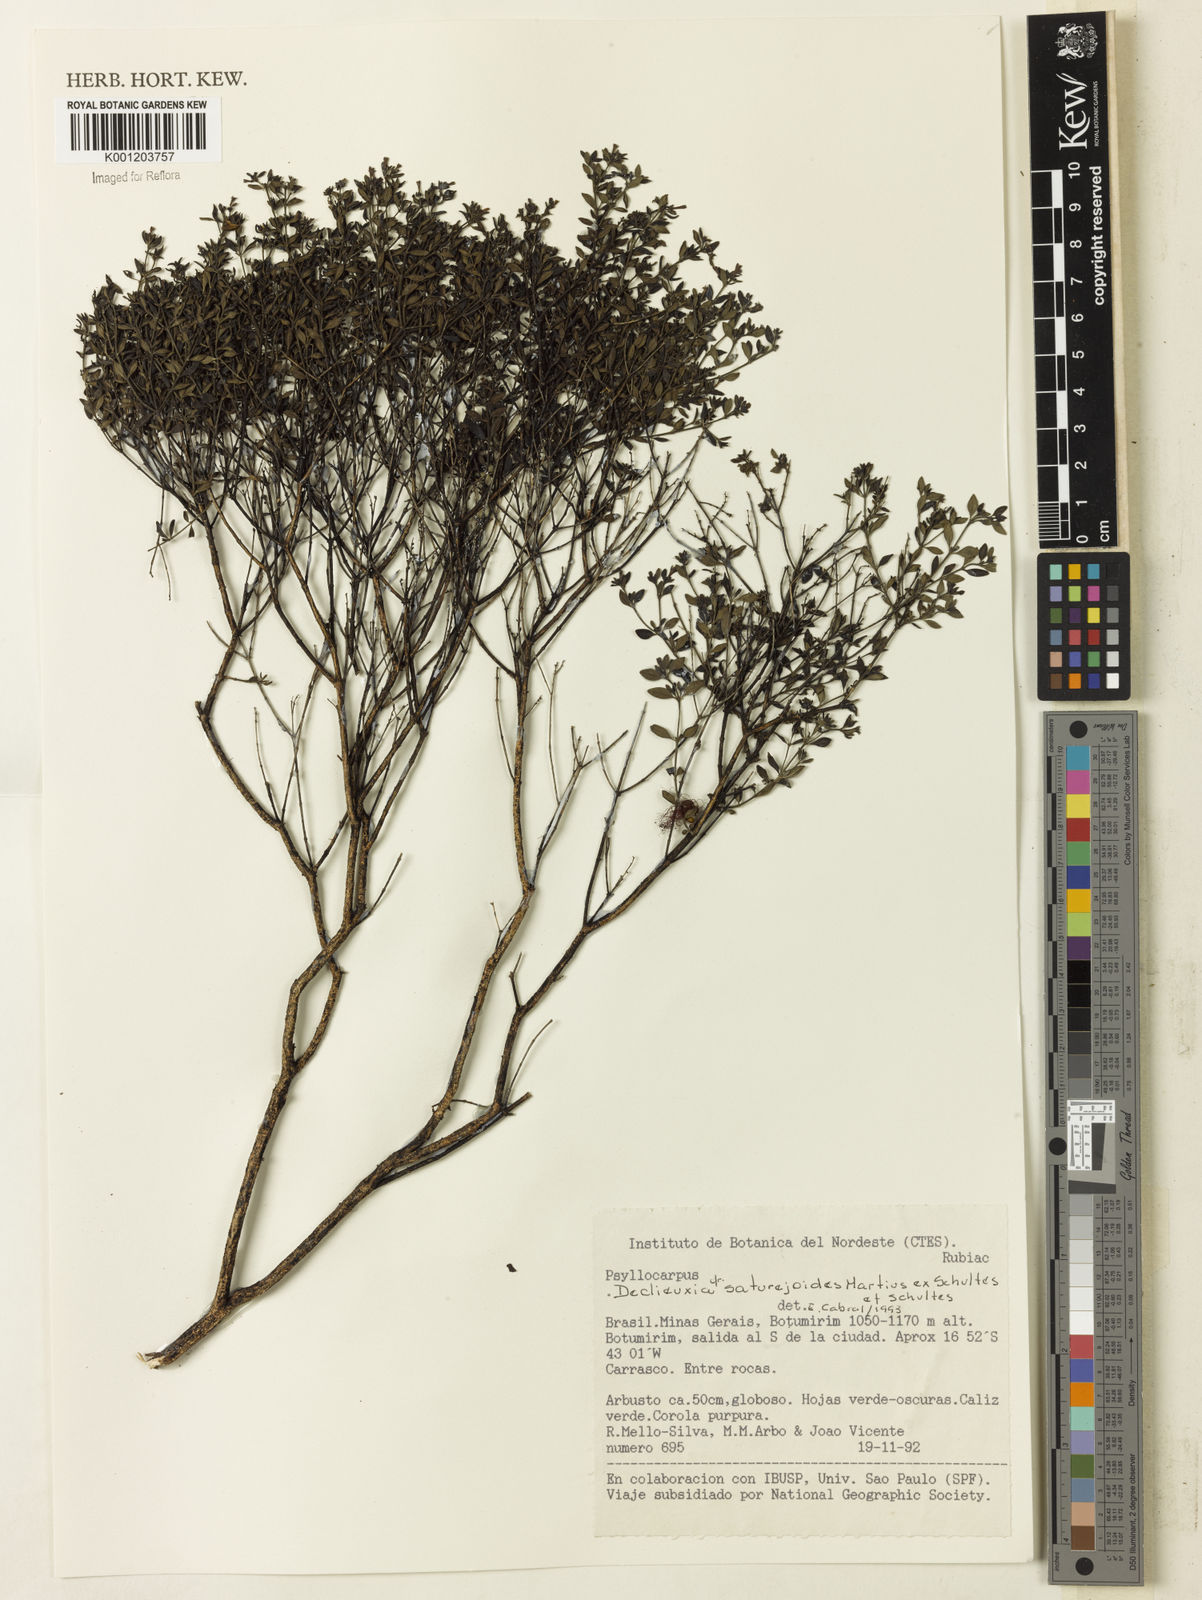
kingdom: Plantae
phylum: Tracheophyta
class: Magnoliopsida
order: Gentianales
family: Rubiaceae
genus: Declieuxia
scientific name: Declieuxia
